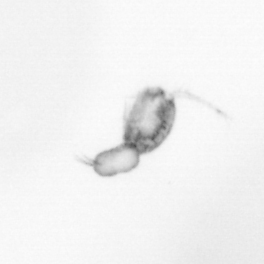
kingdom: Animalia
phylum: Arthropoda
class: Copepoda
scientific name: Copepoda
